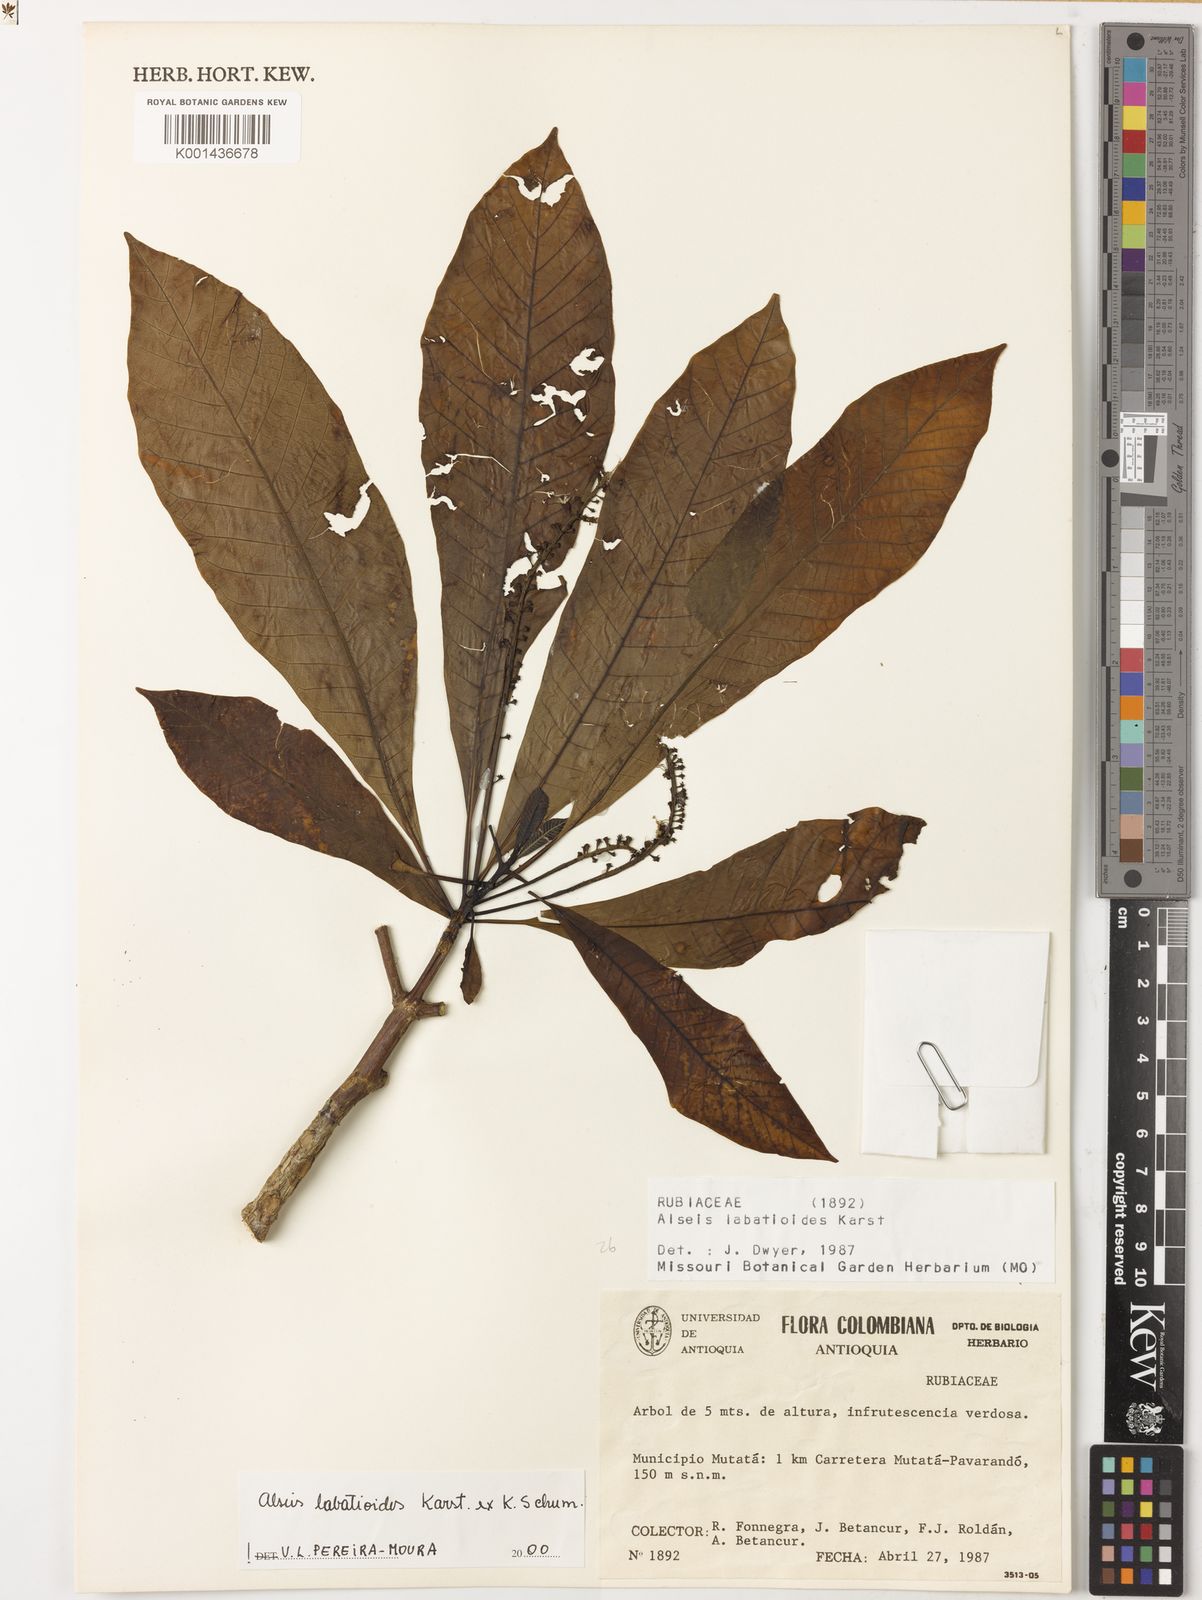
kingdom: Plantae
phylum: Tracheophyta
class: Magnoliopsida
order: Gentianales
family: Rubiaceae
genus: Alseis
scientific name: Alseis labatioides
